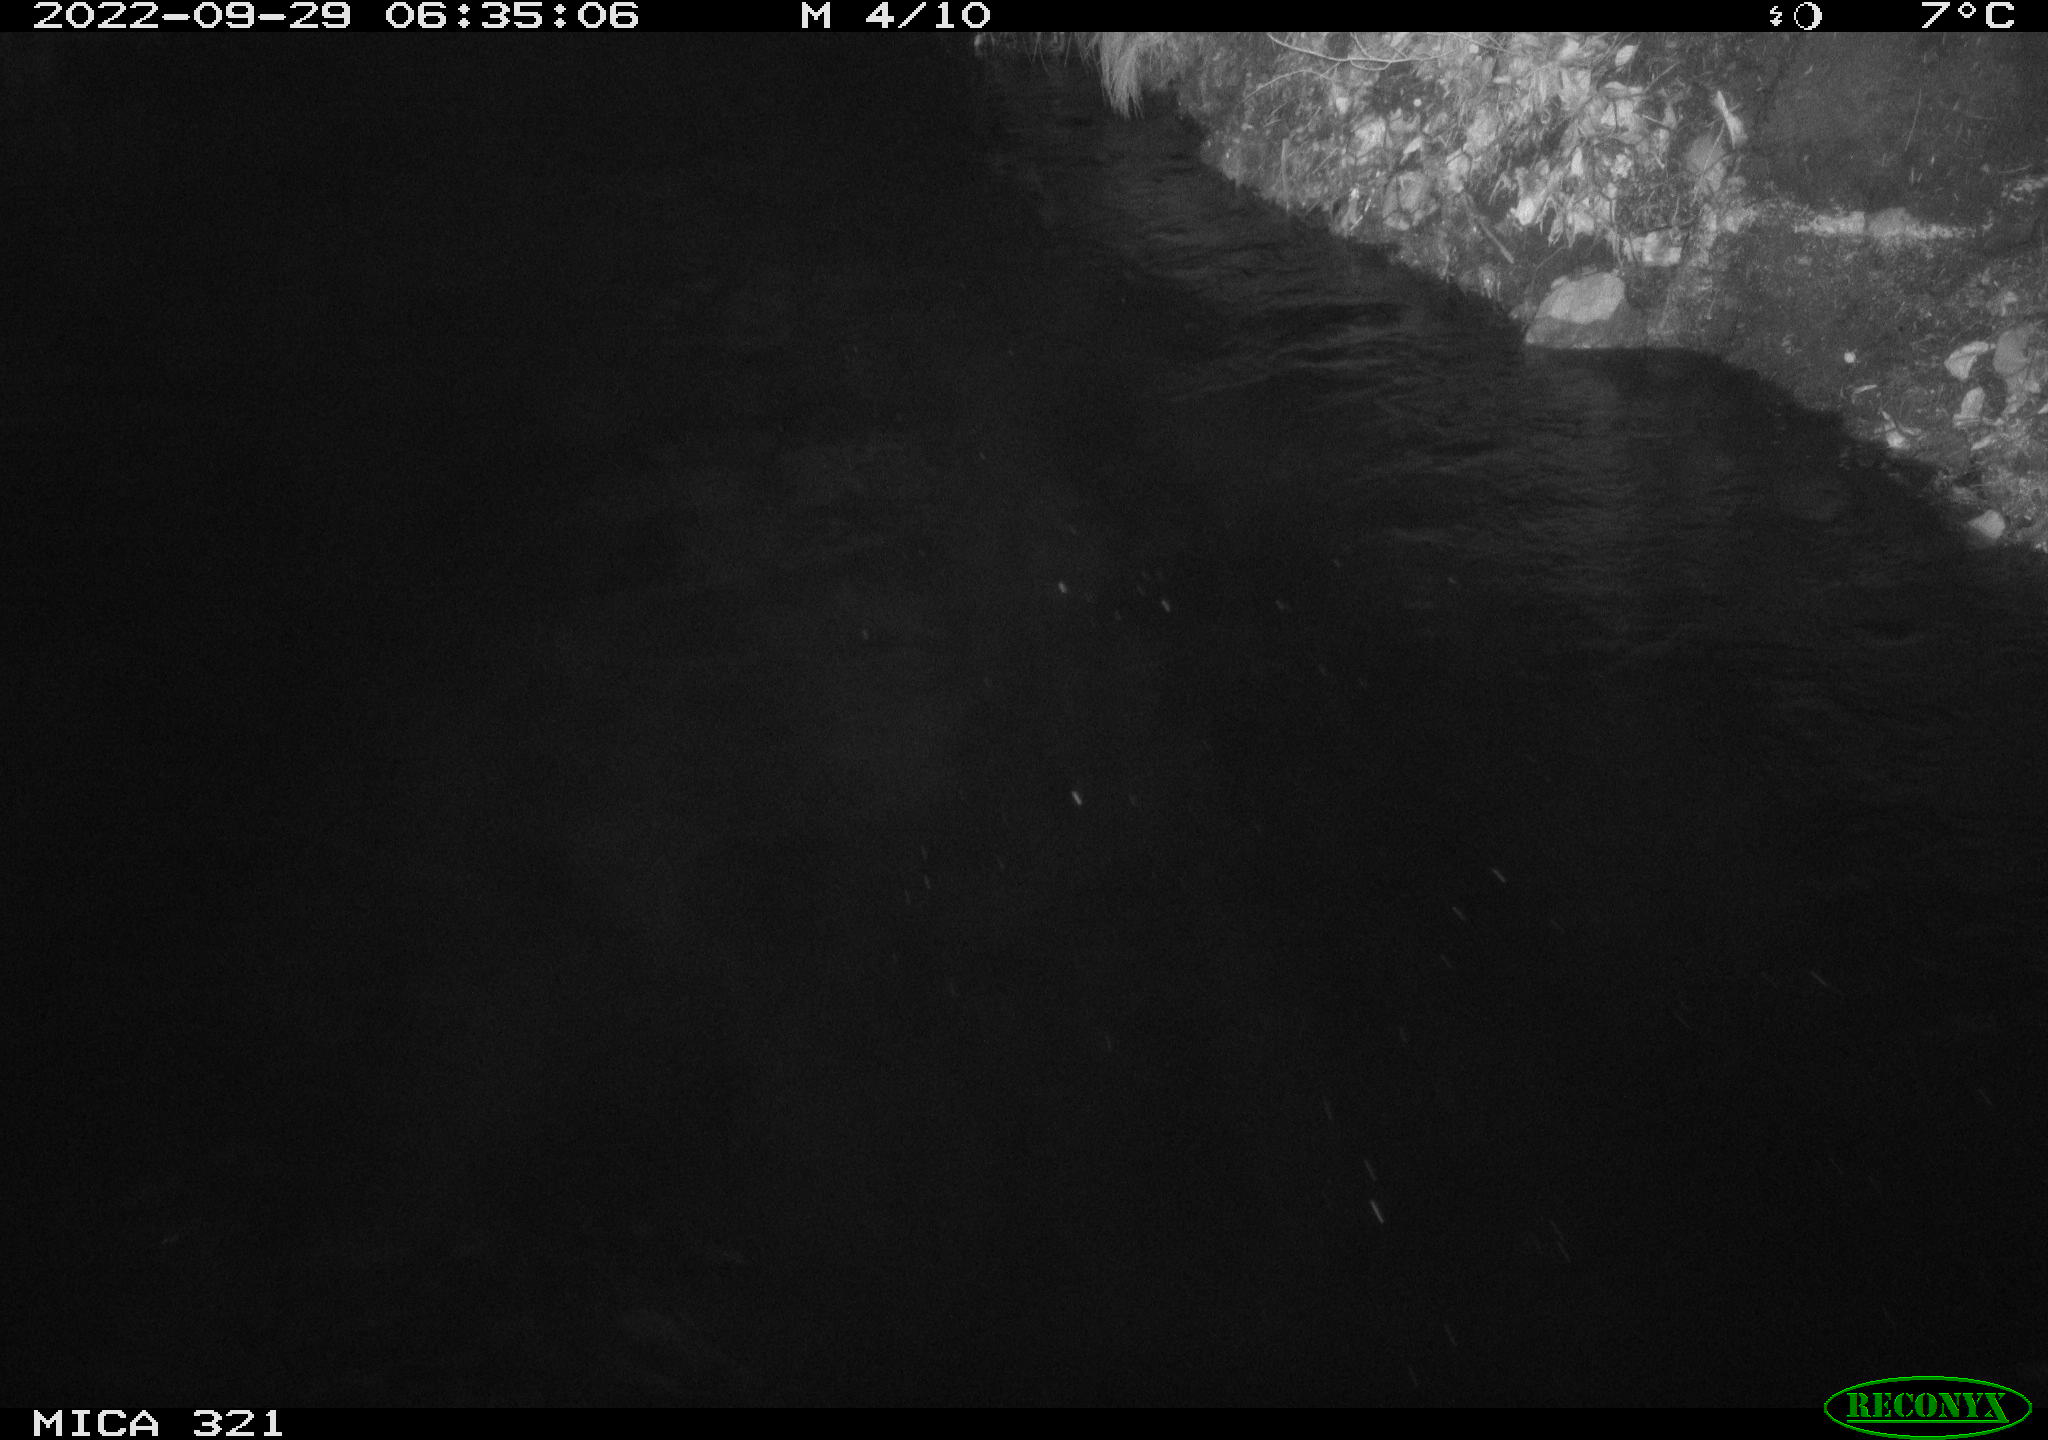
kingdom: Animalia
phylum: Chordata
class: Aves
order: Anseriformes
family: Anatidae
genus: Anas
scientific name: Anas
